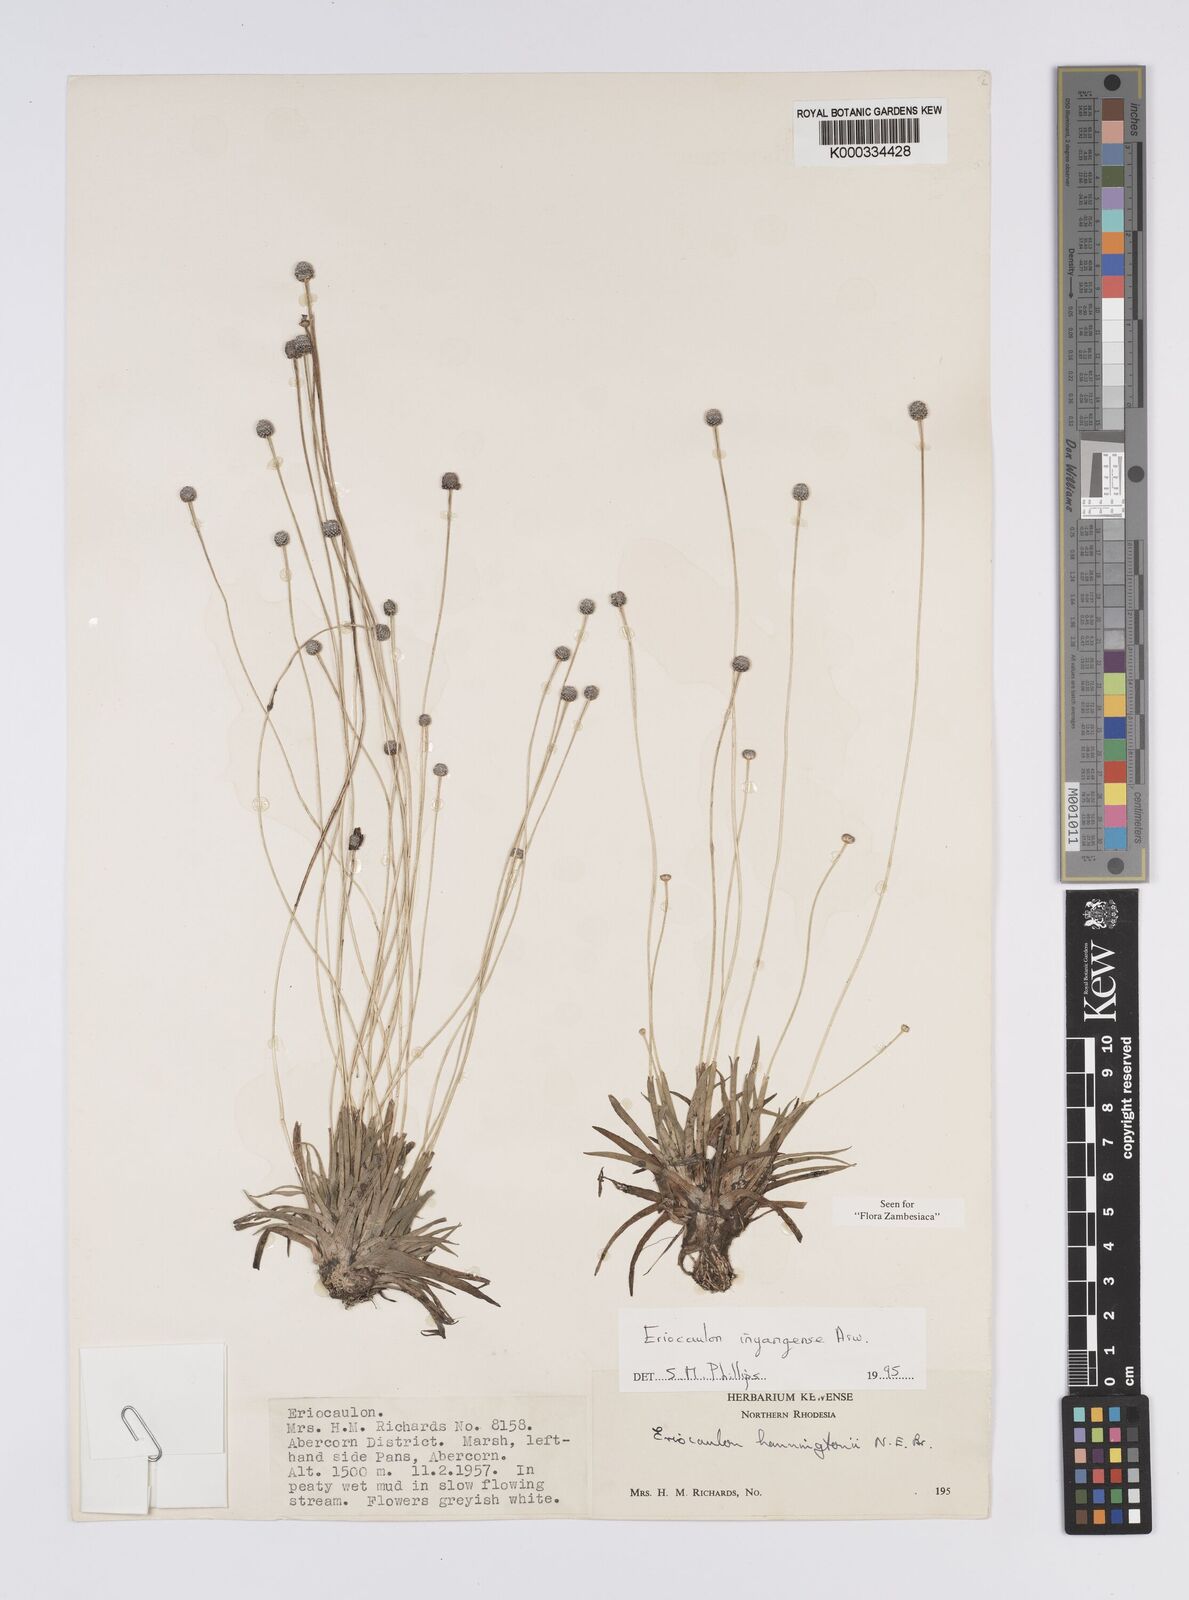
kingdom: Plantae
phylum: Tracheophyta
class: Liliopsida
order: Poales
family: Eriocaulaceae
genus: Eriocaulon
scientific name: Eriocaulon inyangense
